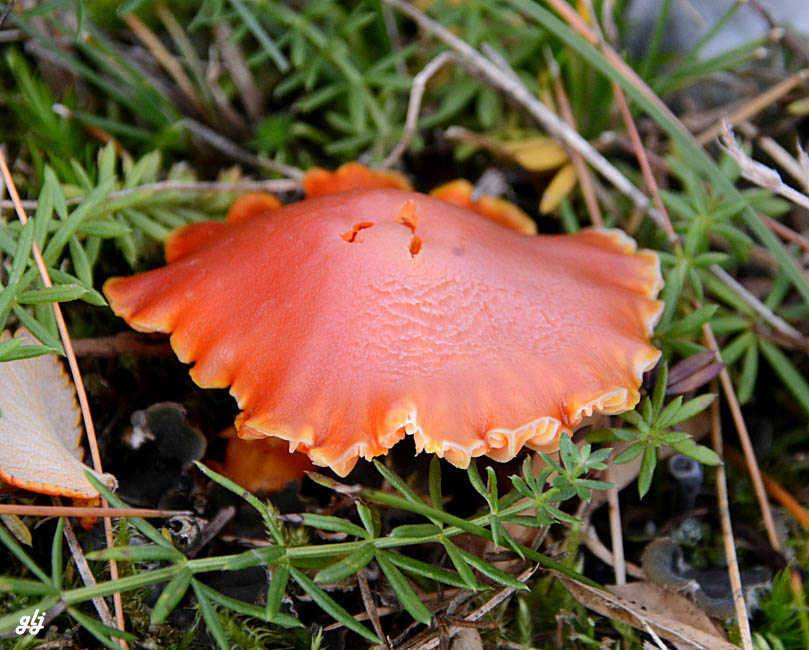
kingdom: Fungi
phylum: Basidiomycota
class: Agaricomycetes
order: Agaricales
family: Hygrophoraceae
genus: Hygrocybe
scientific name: Hygrocybe reidii
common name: honning-vokshat
